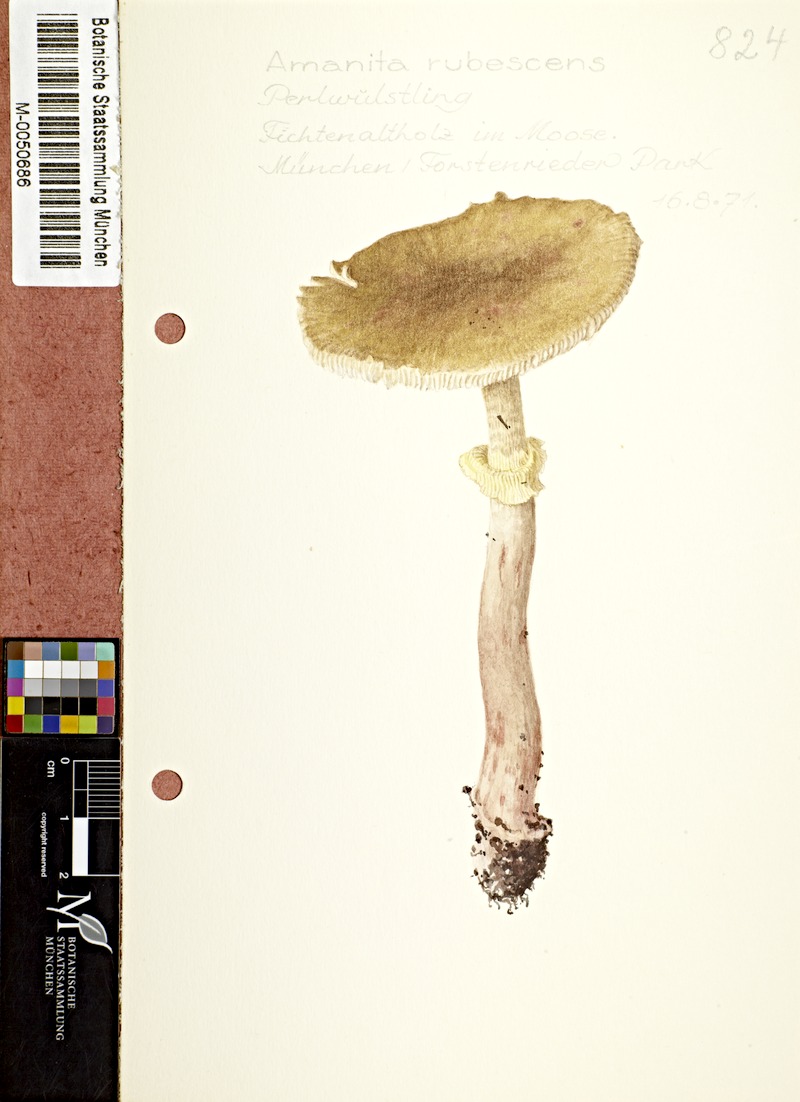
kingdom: Fungi
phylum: Basidiomycota
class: Agaricomycetes
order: Agaricales
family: Amanitaceae
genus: Amanita
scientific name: Amanita rubescens
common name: Blusher
